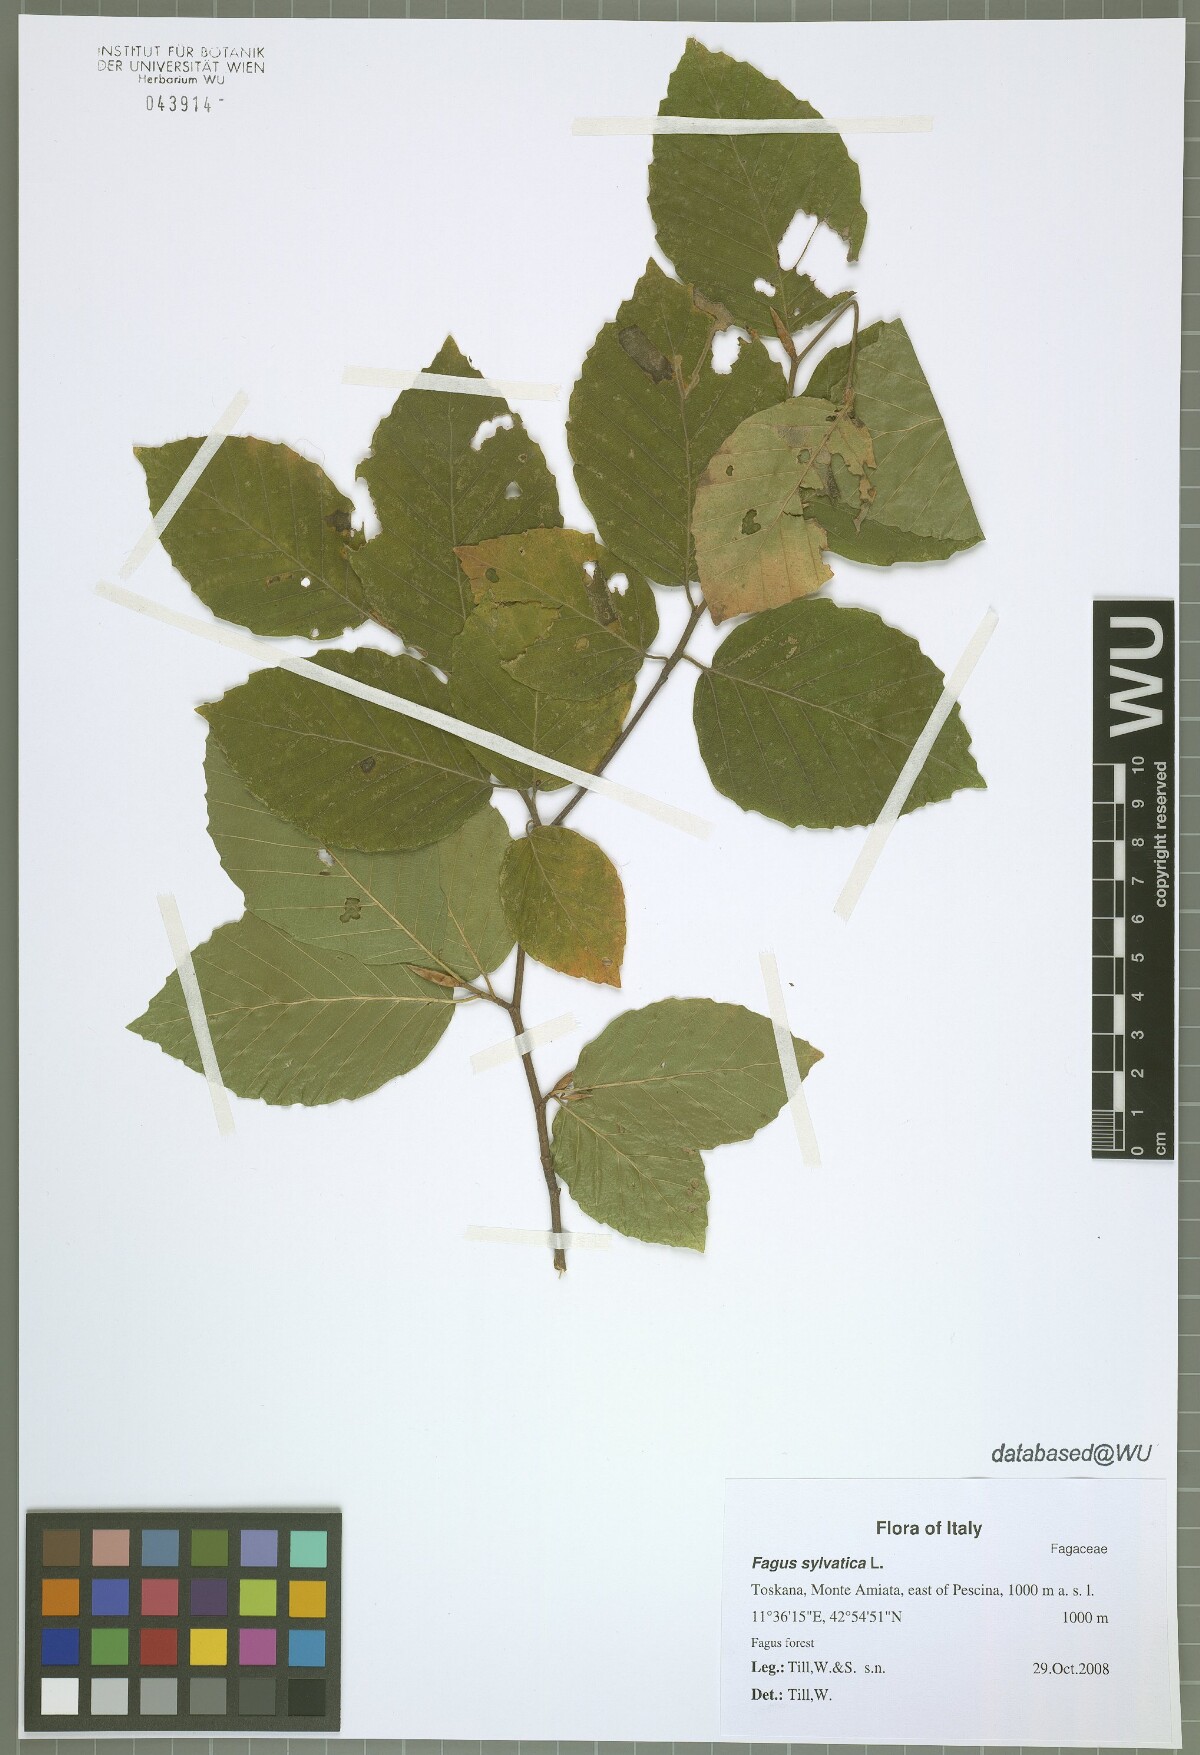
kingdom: Plantae
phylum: Tracheophyta
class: Magnoliopsida
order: Fagales
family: Fagaceae
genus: Fagus
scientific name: Fagus sylvatica
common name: Beech
